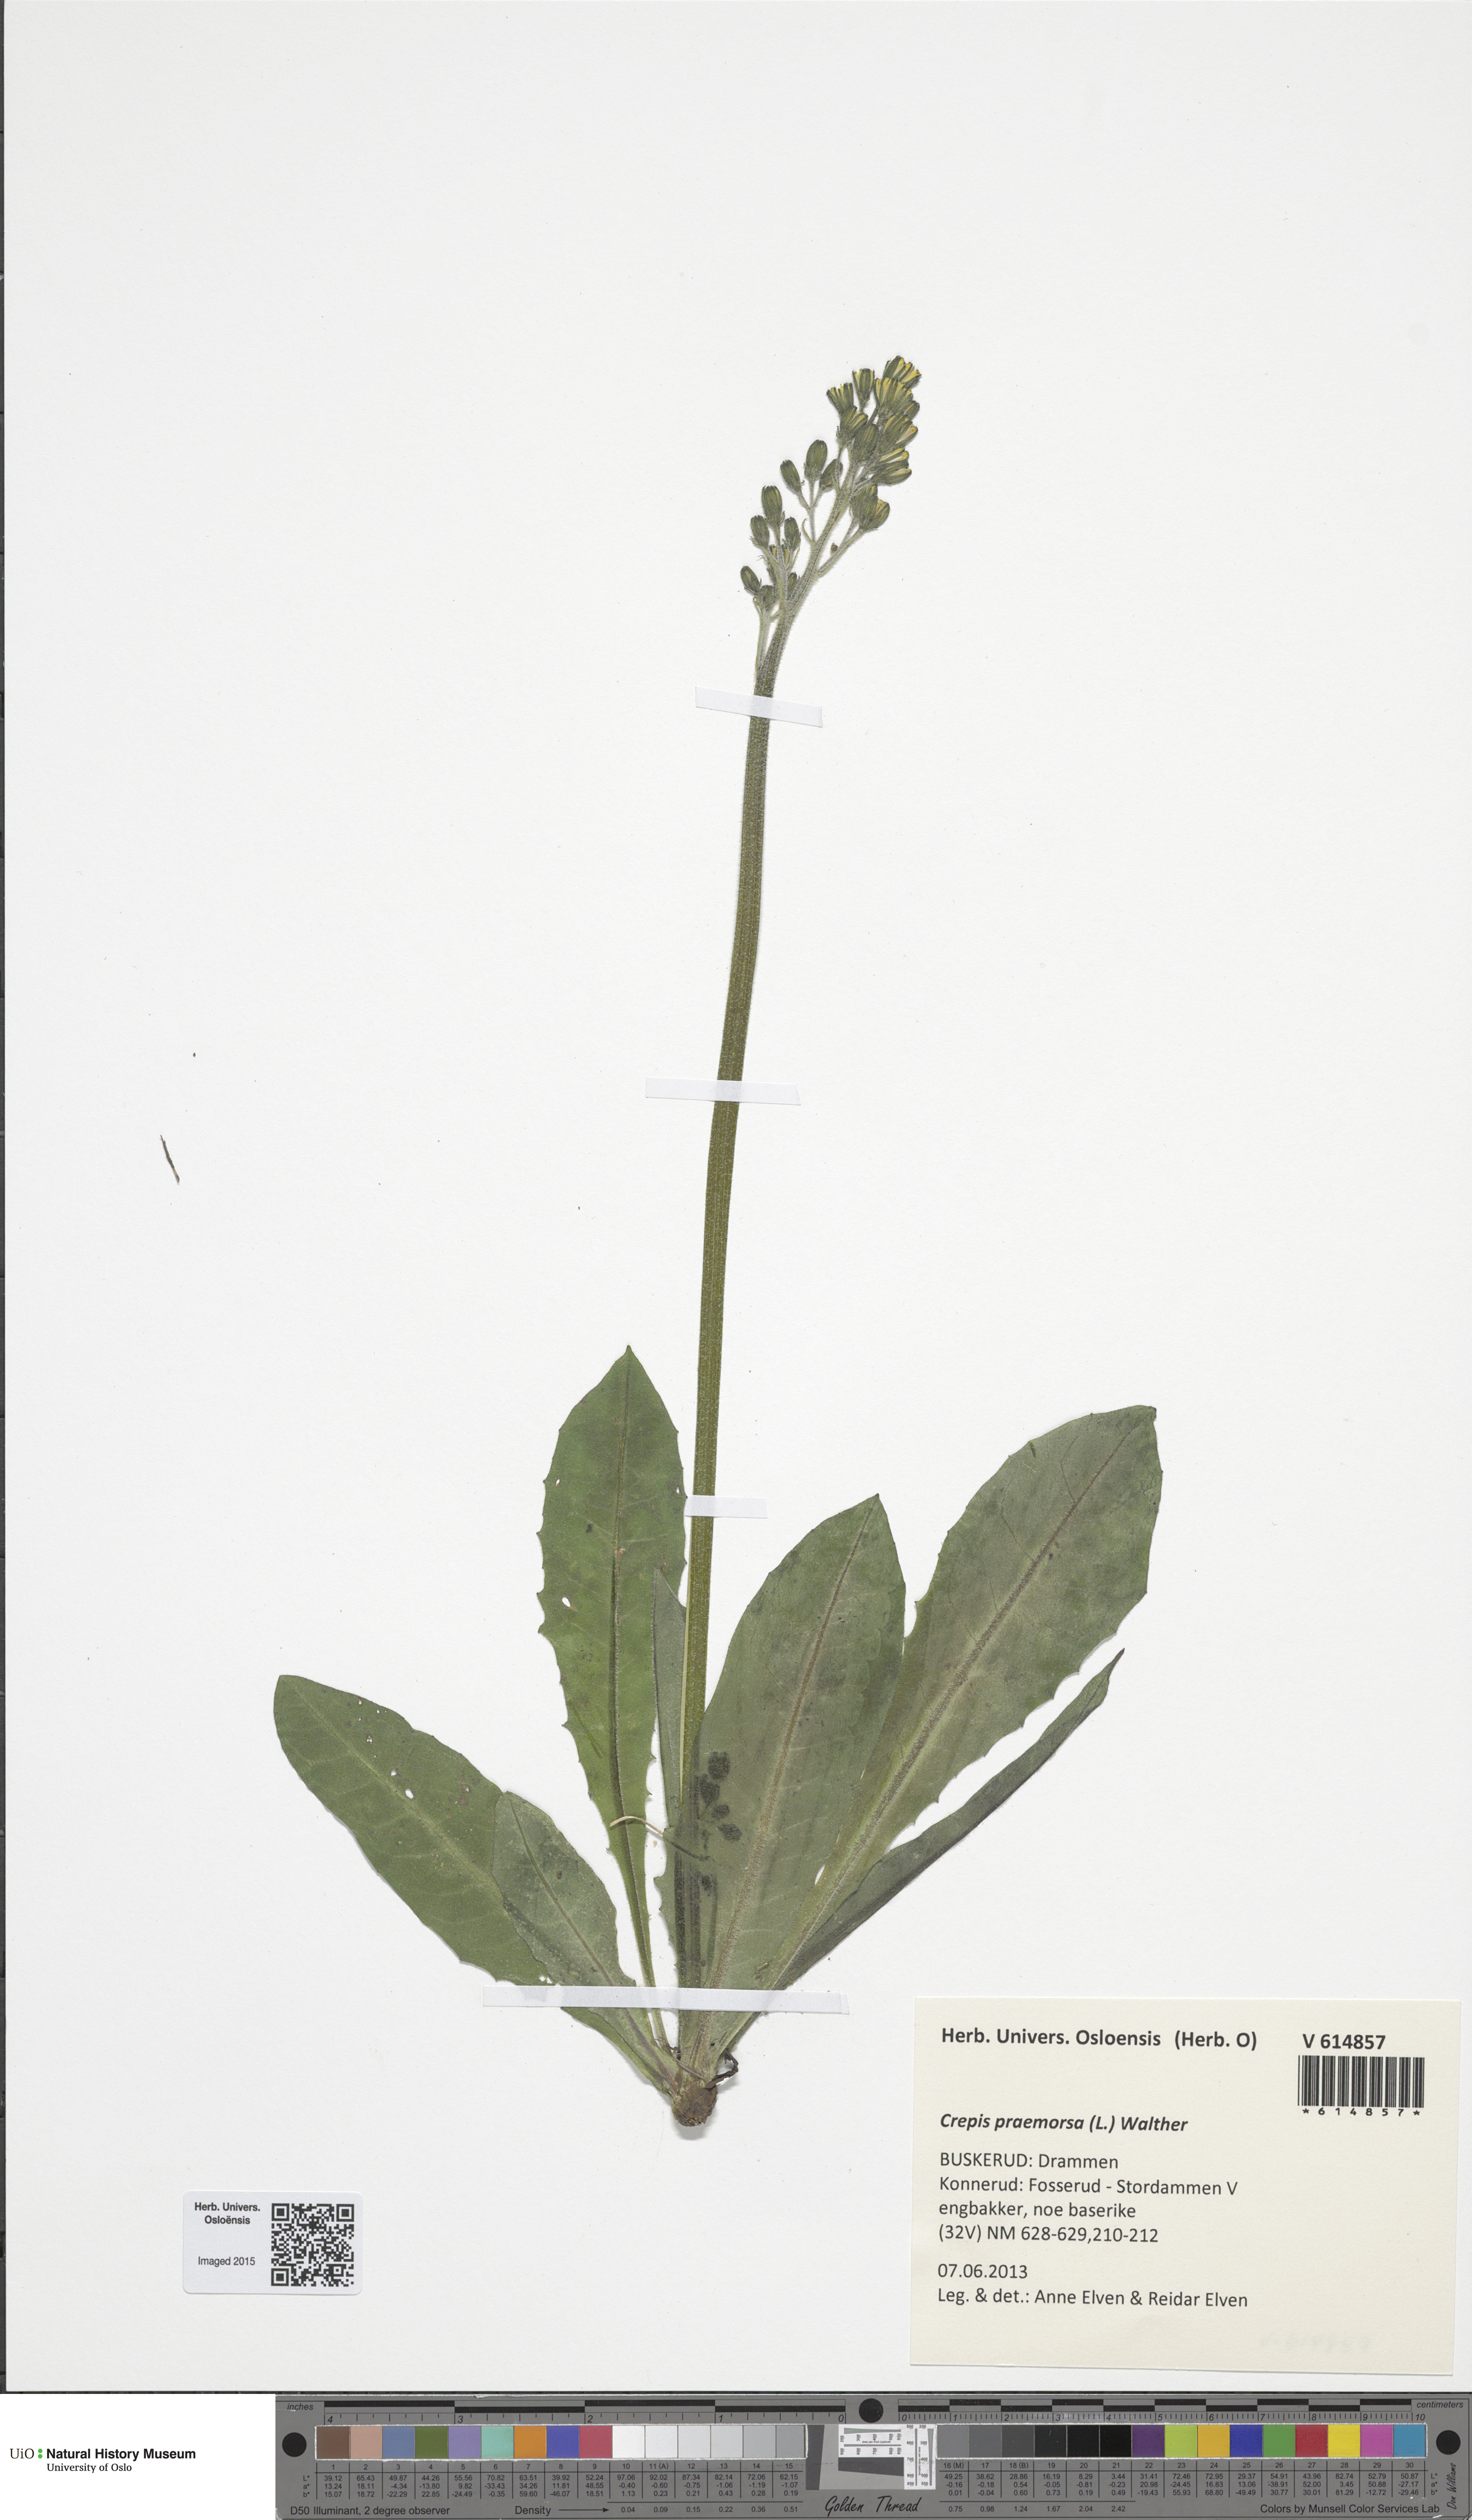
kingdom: Plantae
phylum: Tracheophyta
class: Magnoliopsida
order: Asterales
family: Asteraceae
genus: Crepis
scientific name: Crepis praemorsa
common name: Leafless hawk's-beard
